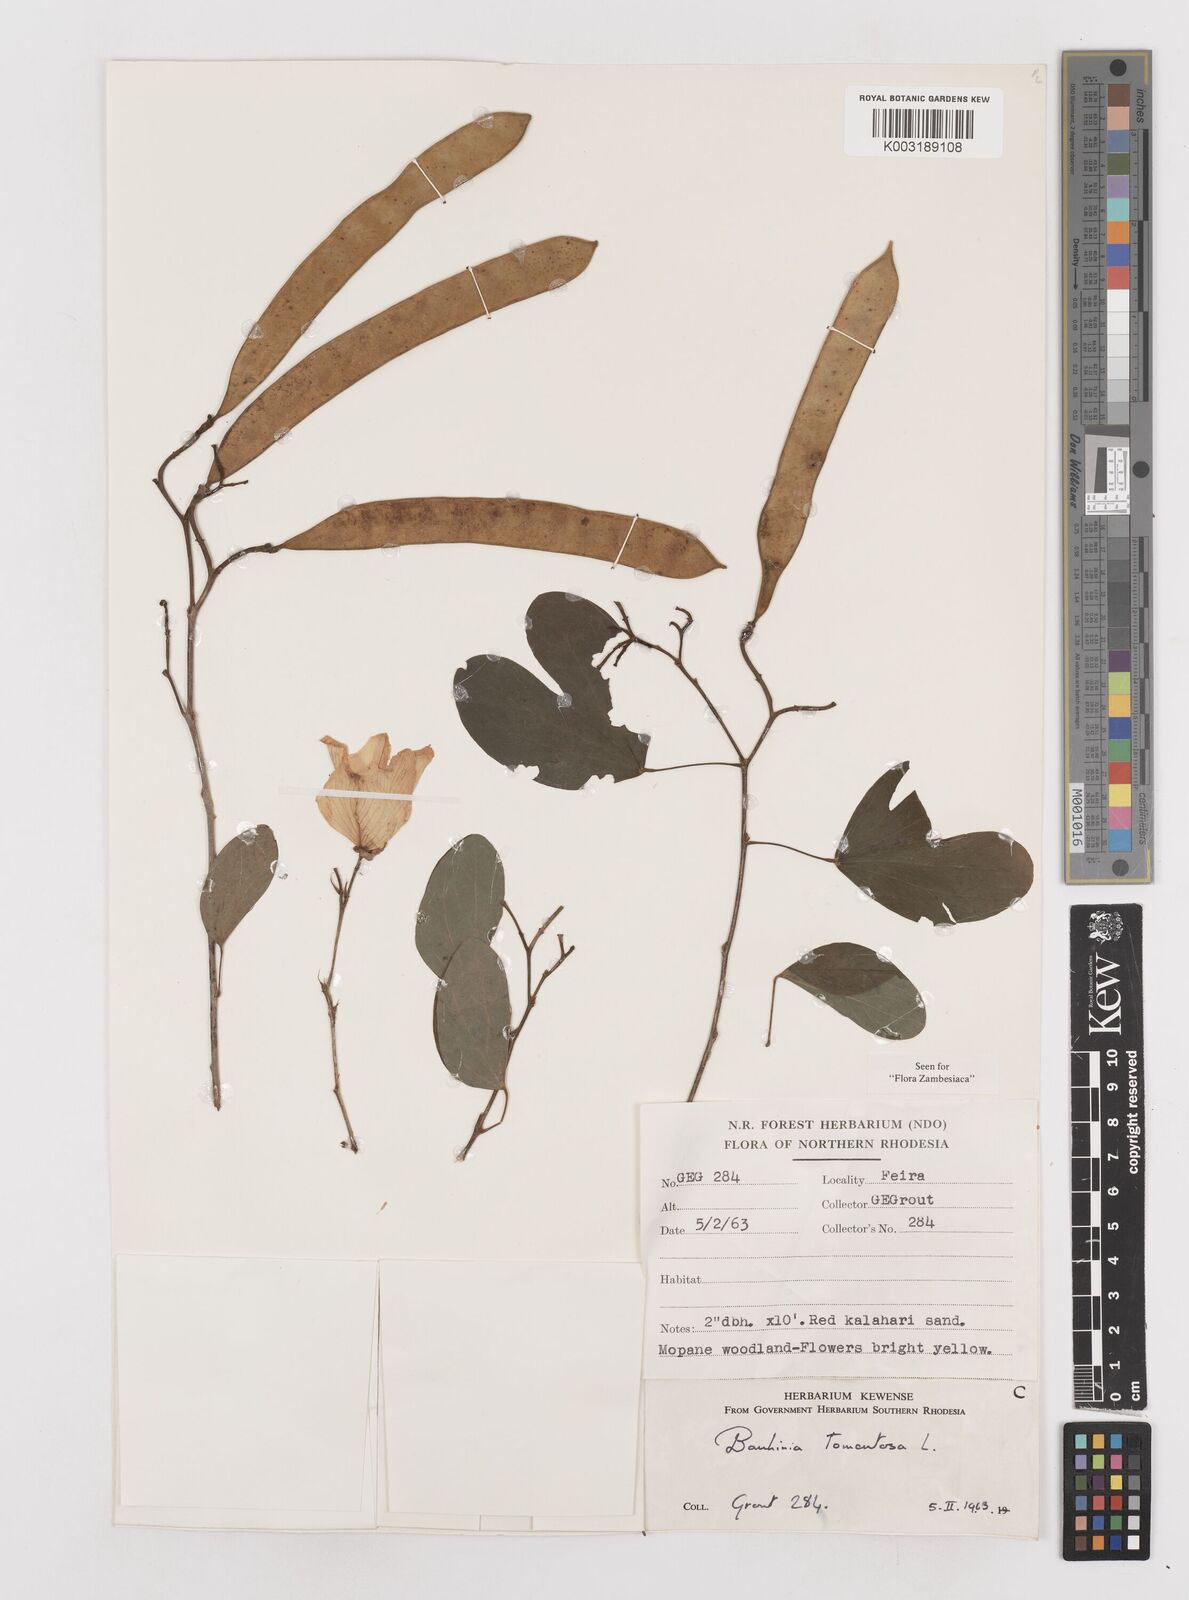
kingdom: Plantae
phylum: Tracheophyta
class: Magnoliopsida
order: Fabales
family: Fabaceae
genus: Bauhinia
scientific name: Bauhinia tomentosa
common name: Bell bauhinia
